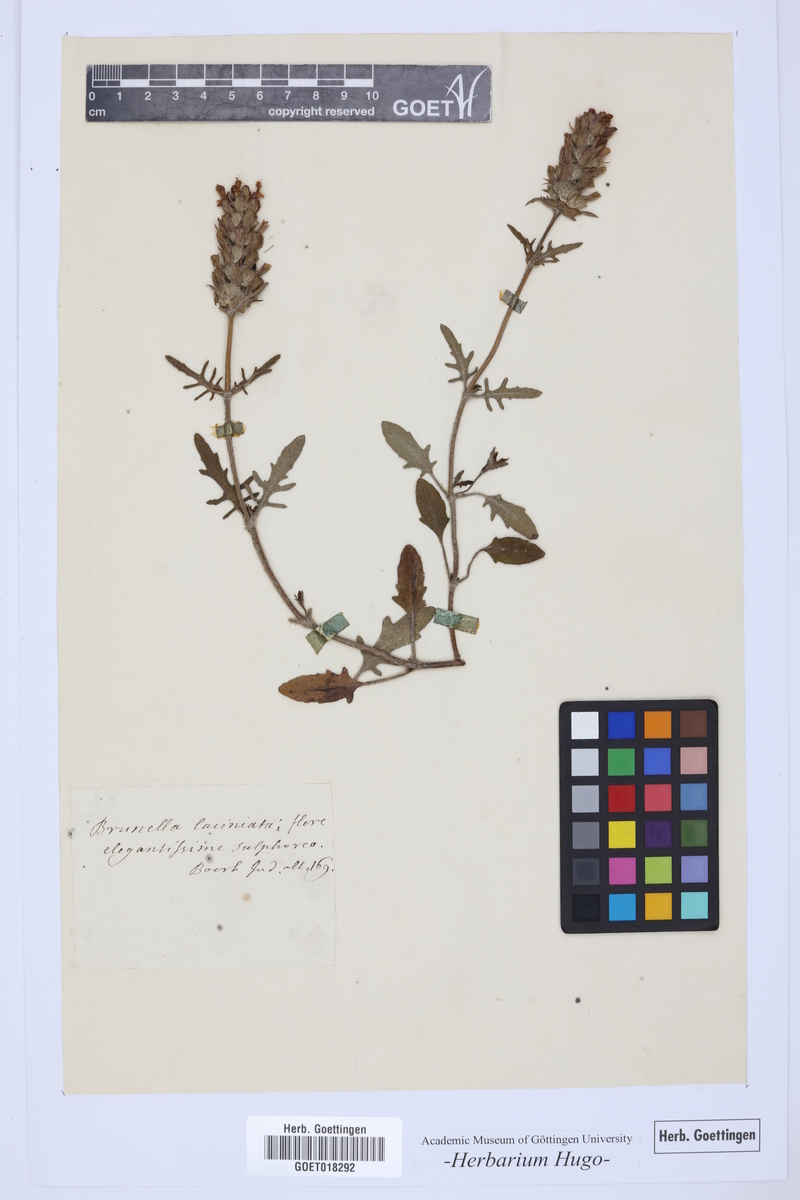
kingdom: Plantae
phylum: Tracheophyta
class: Magnoliopsida
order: Lamiales
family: Lamiaceae
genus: Prunella
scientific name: Prunella laciniata
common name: Cut-leaved selfheal
